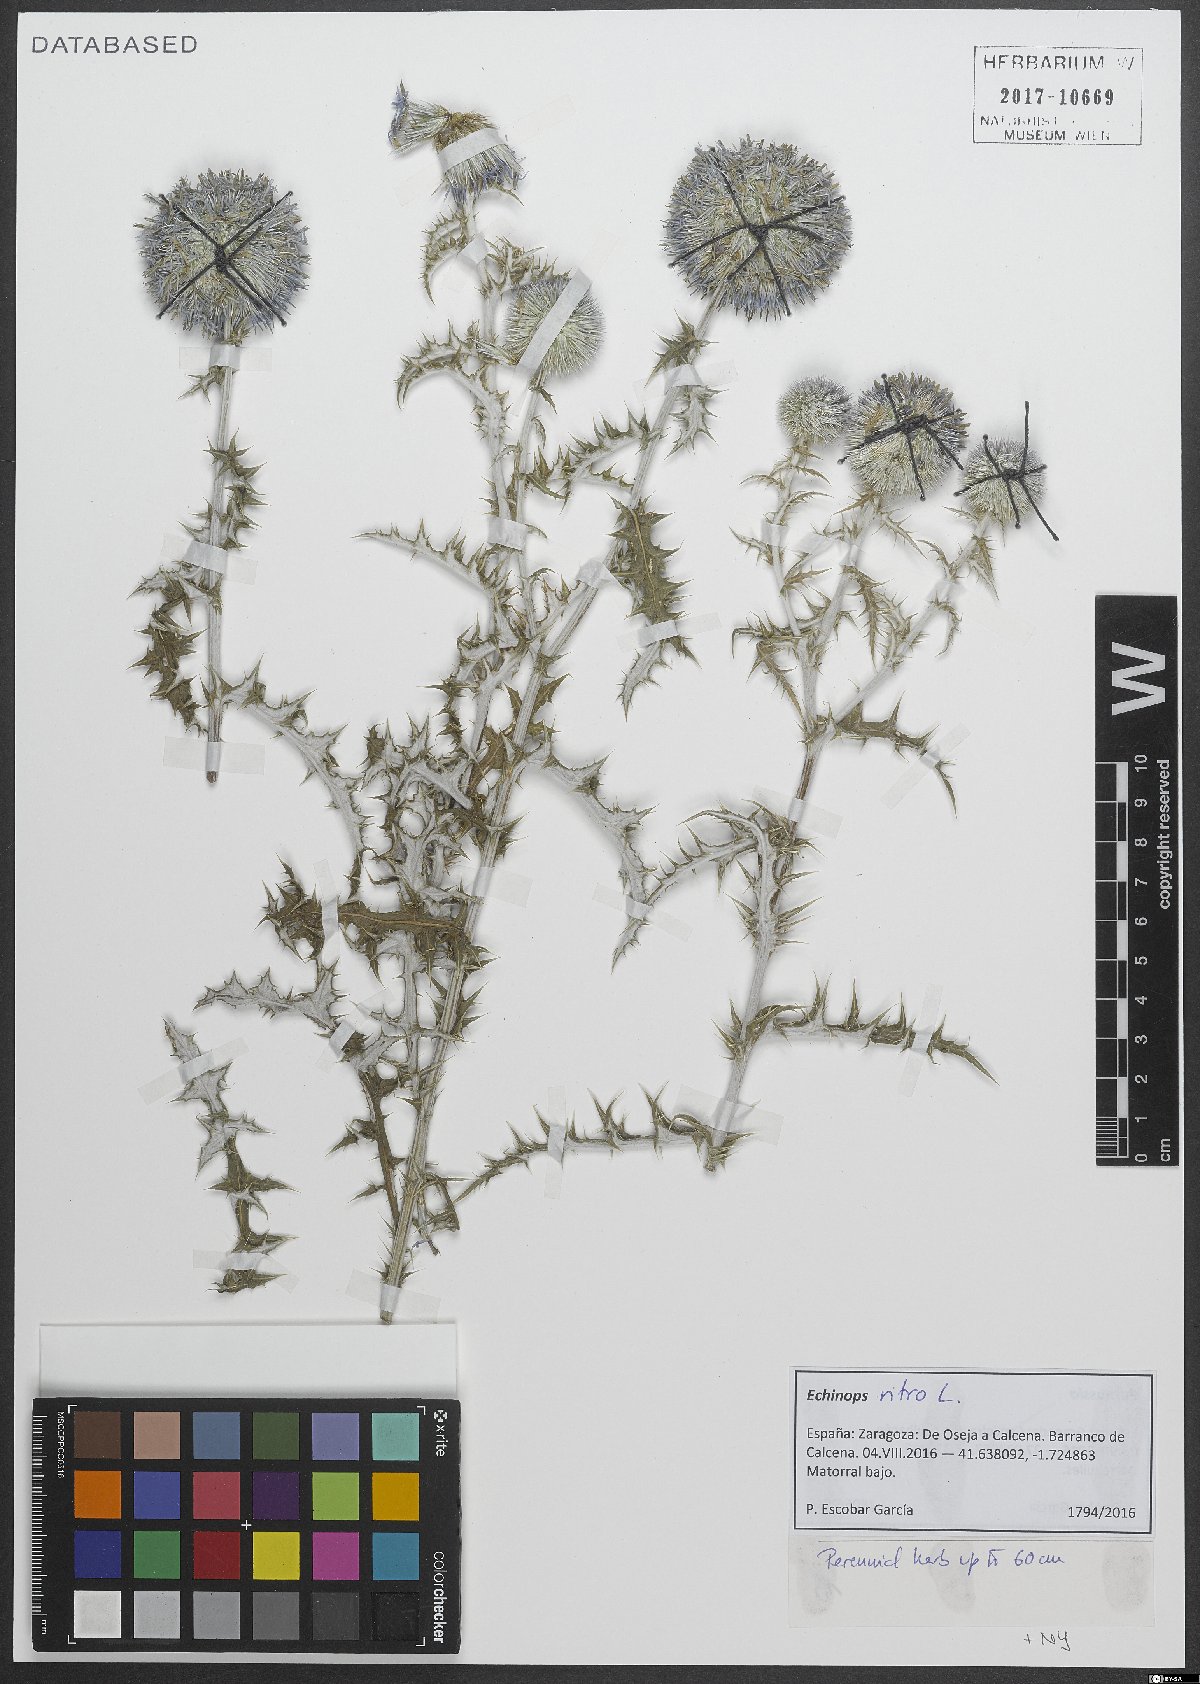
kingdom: Plantae
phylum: Tracheophyta
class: Magnoliopsida
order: Asterales
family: Asteraceae
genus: Echinops
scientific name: Echinops ritro
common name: Globe thistle
